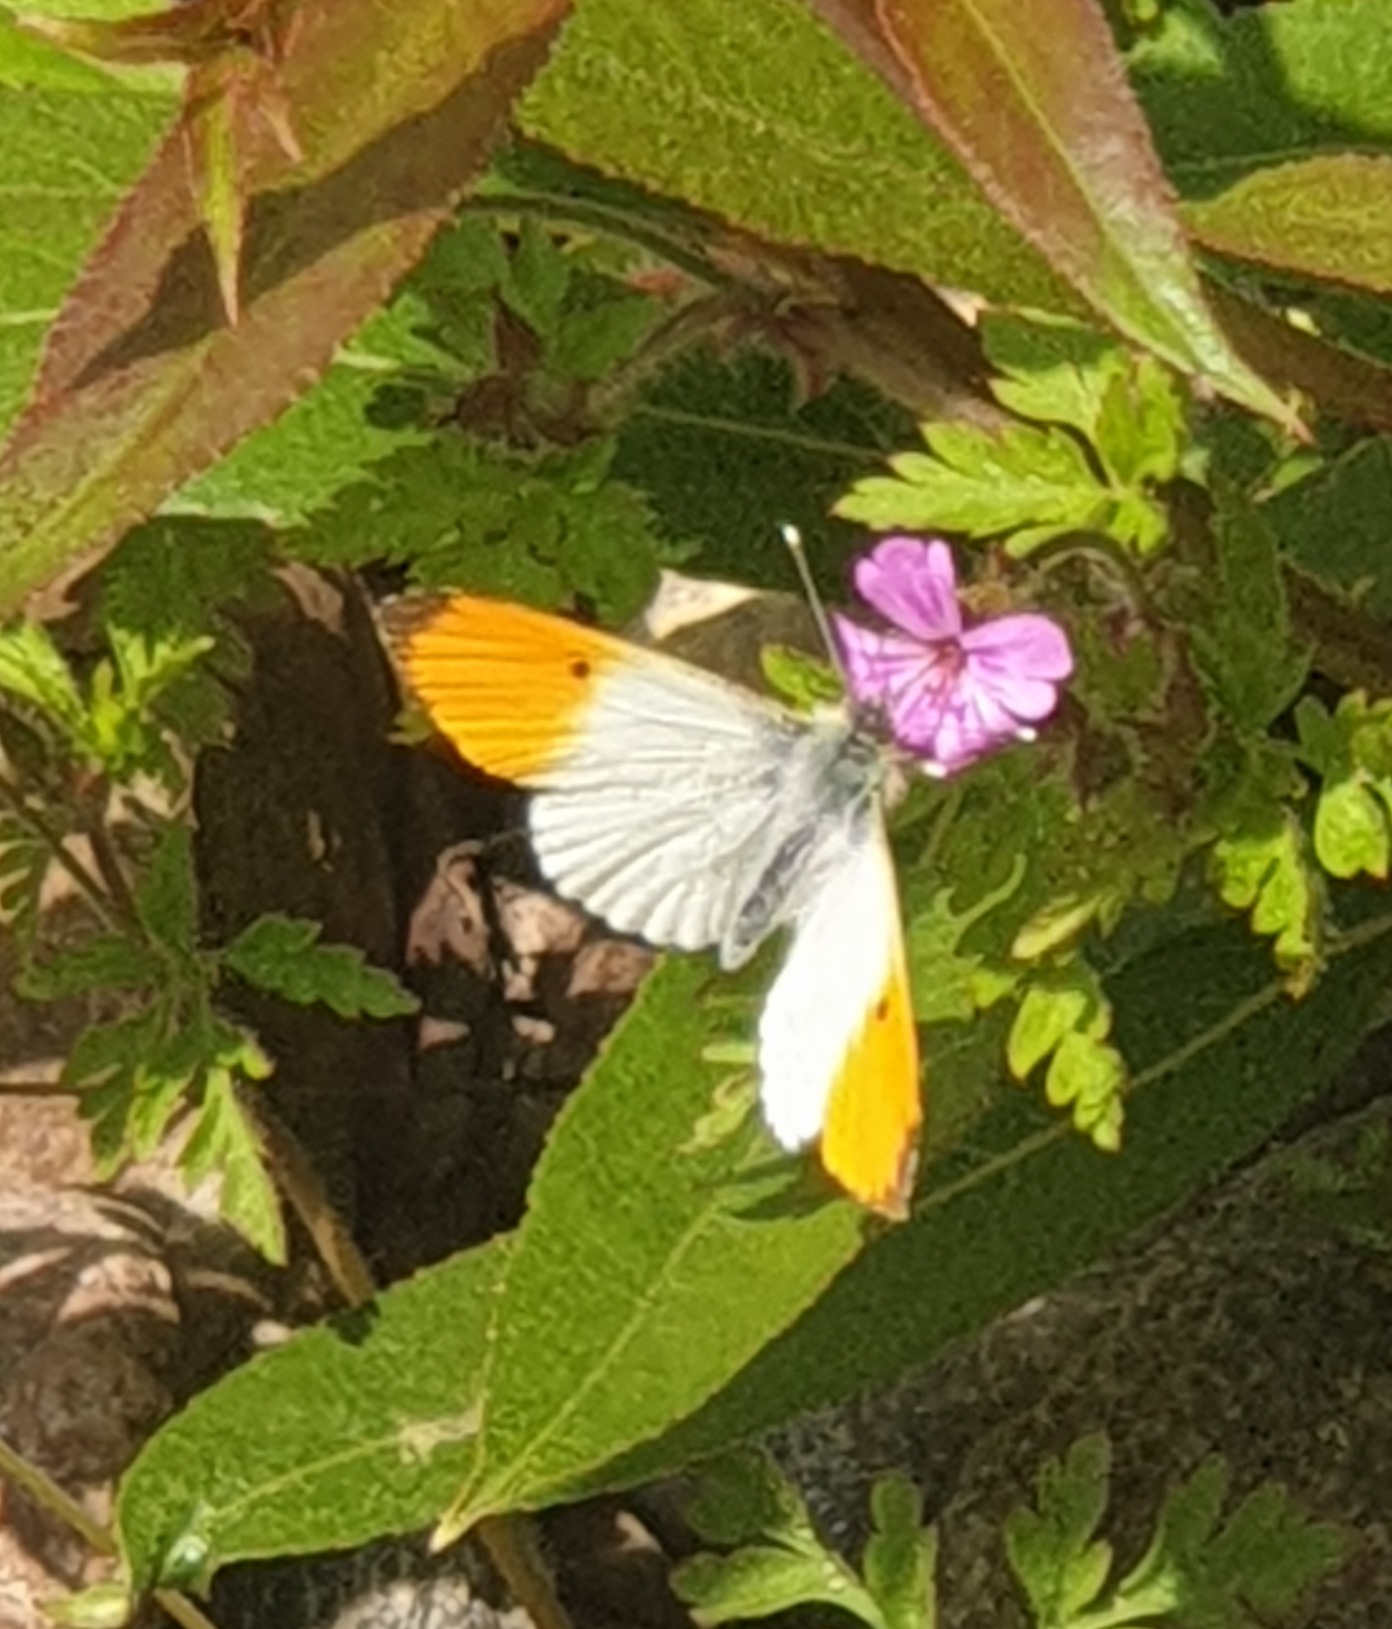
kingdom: Animalia
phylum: Arthropoda
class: Insecta
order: Lepidoptera
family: Pieridae
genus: Anthocharis
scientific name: Anthocharis cardamines
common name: Aurora
